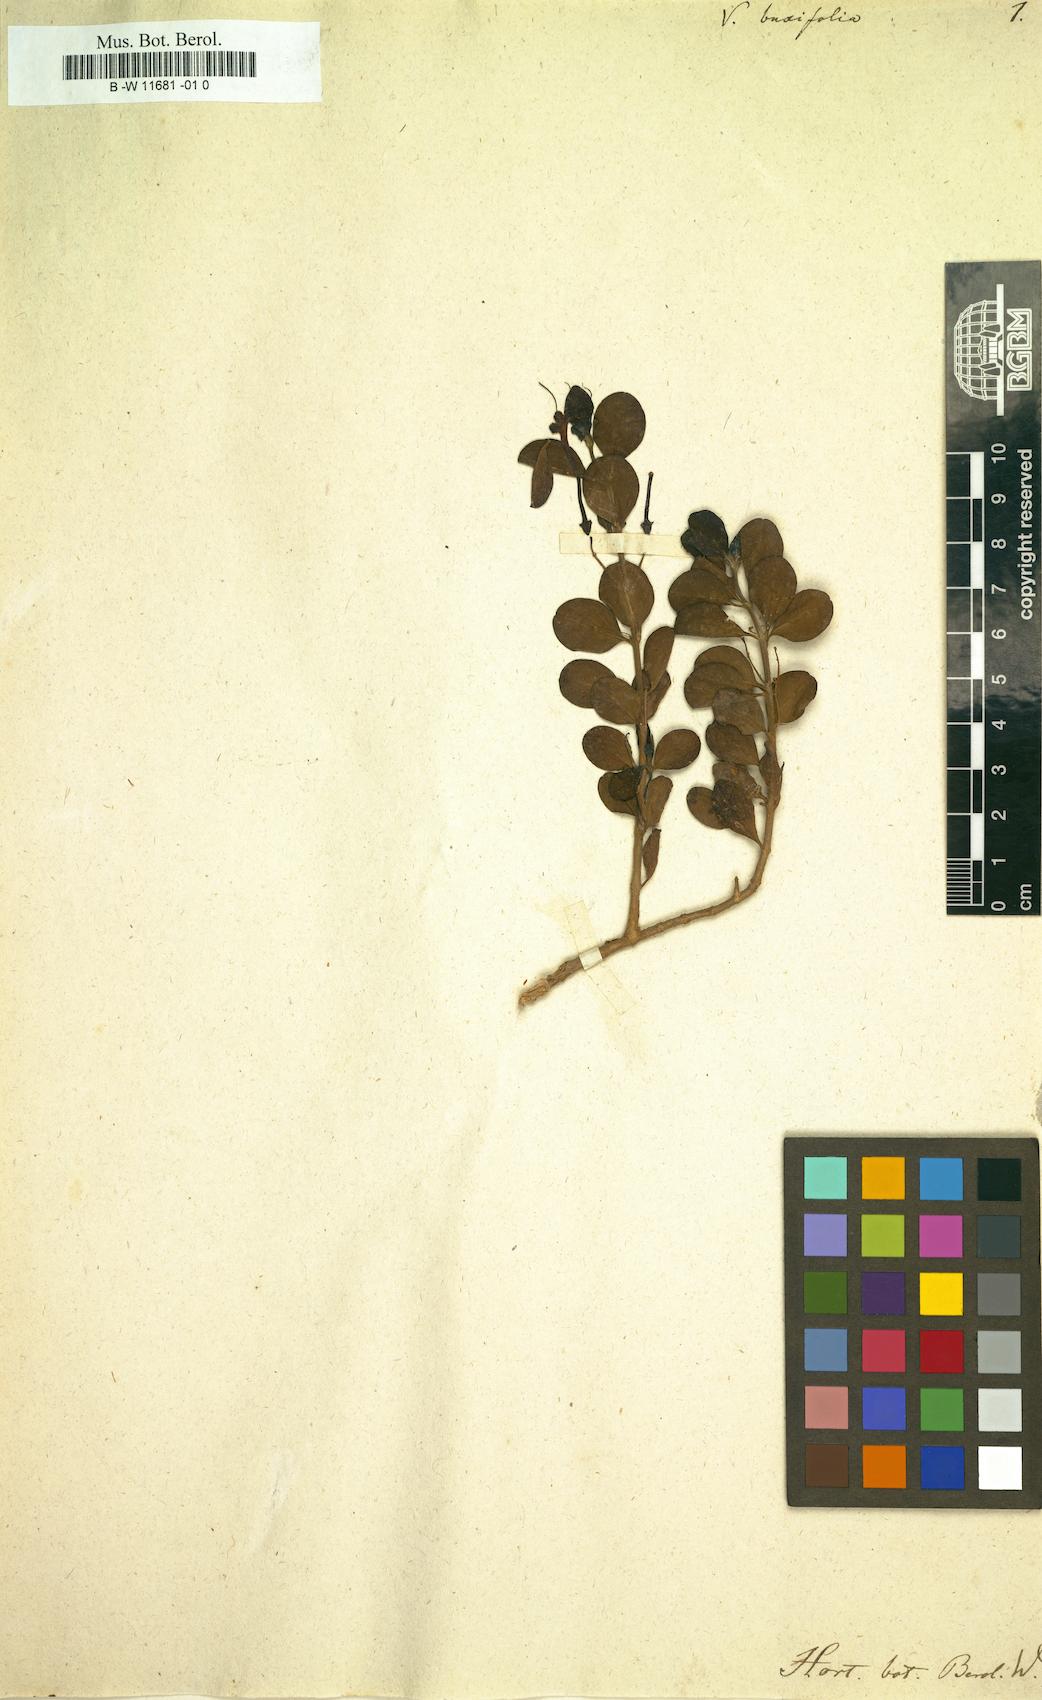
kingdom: Plantae
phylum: Tracheophyta
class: Magnoliopsida
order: Lamiales
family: Lamiaceae
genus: Volkameria
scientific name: Volkameria inermis
